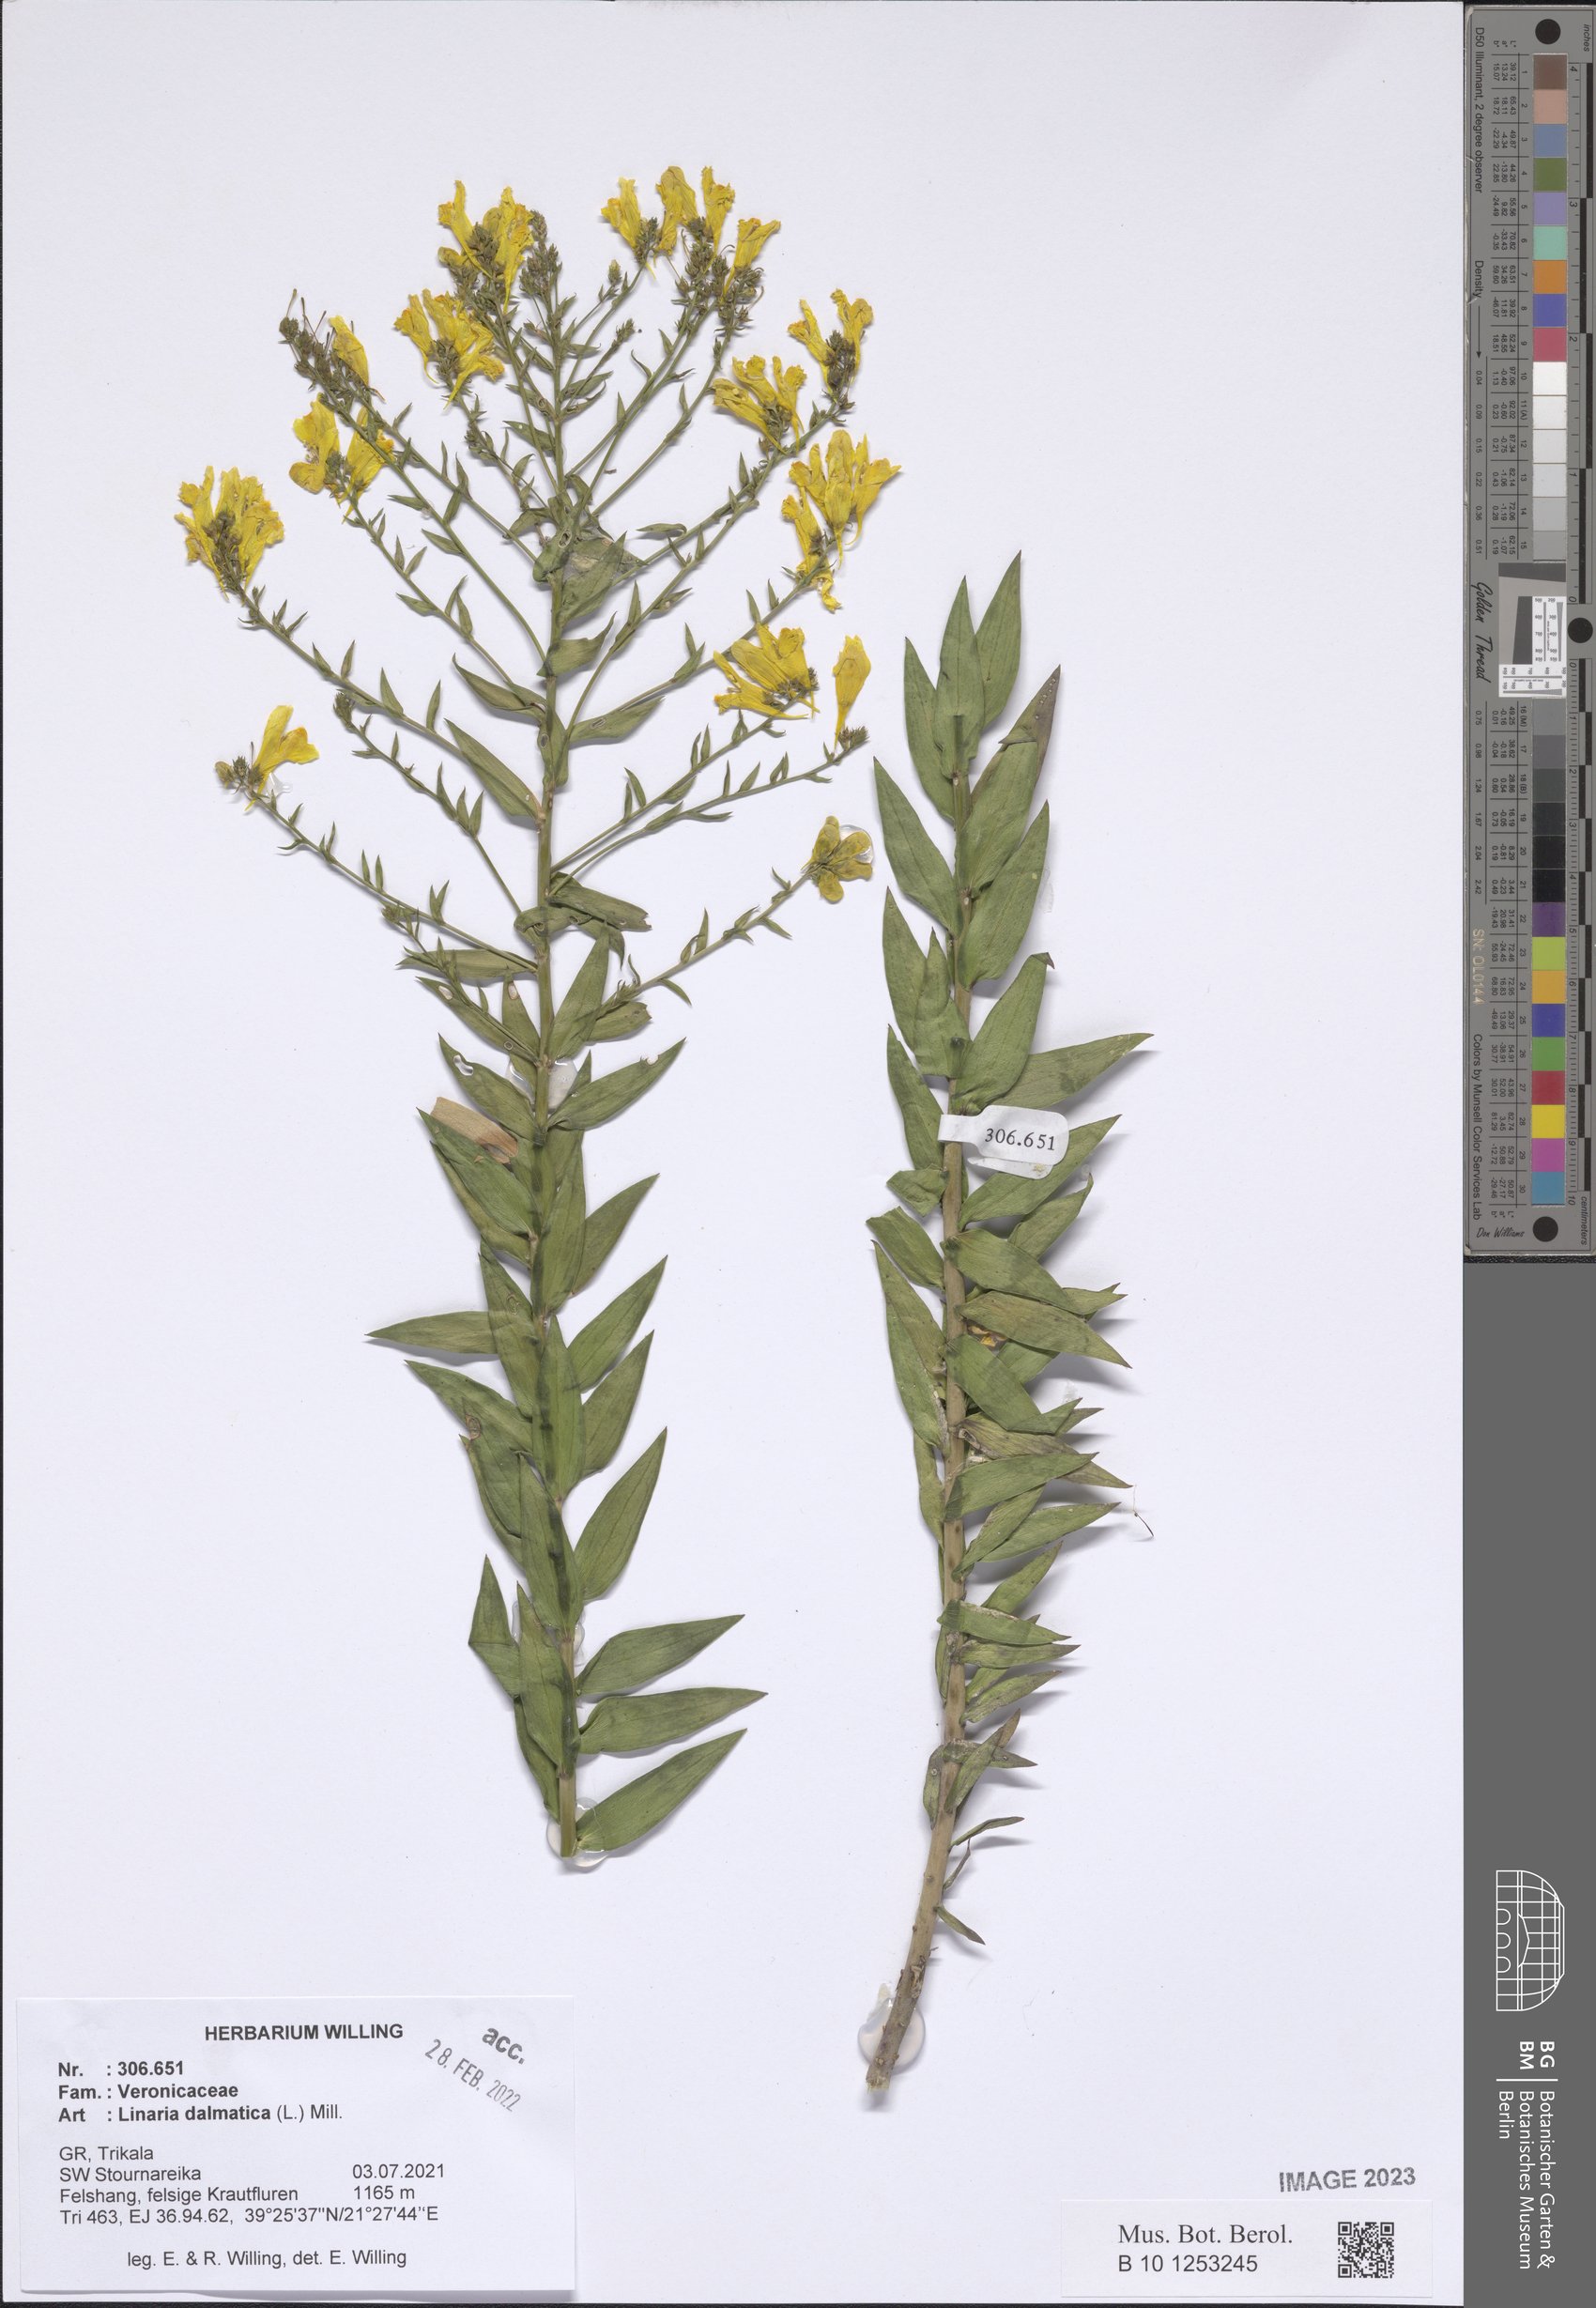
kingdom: Plantae
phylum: Tracheophyta
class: Magnoliopsida
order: Lamiales
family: Plantaginaceae
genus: Linaria
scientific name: Linaria dalmatica
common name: Dalmatian toadflax
